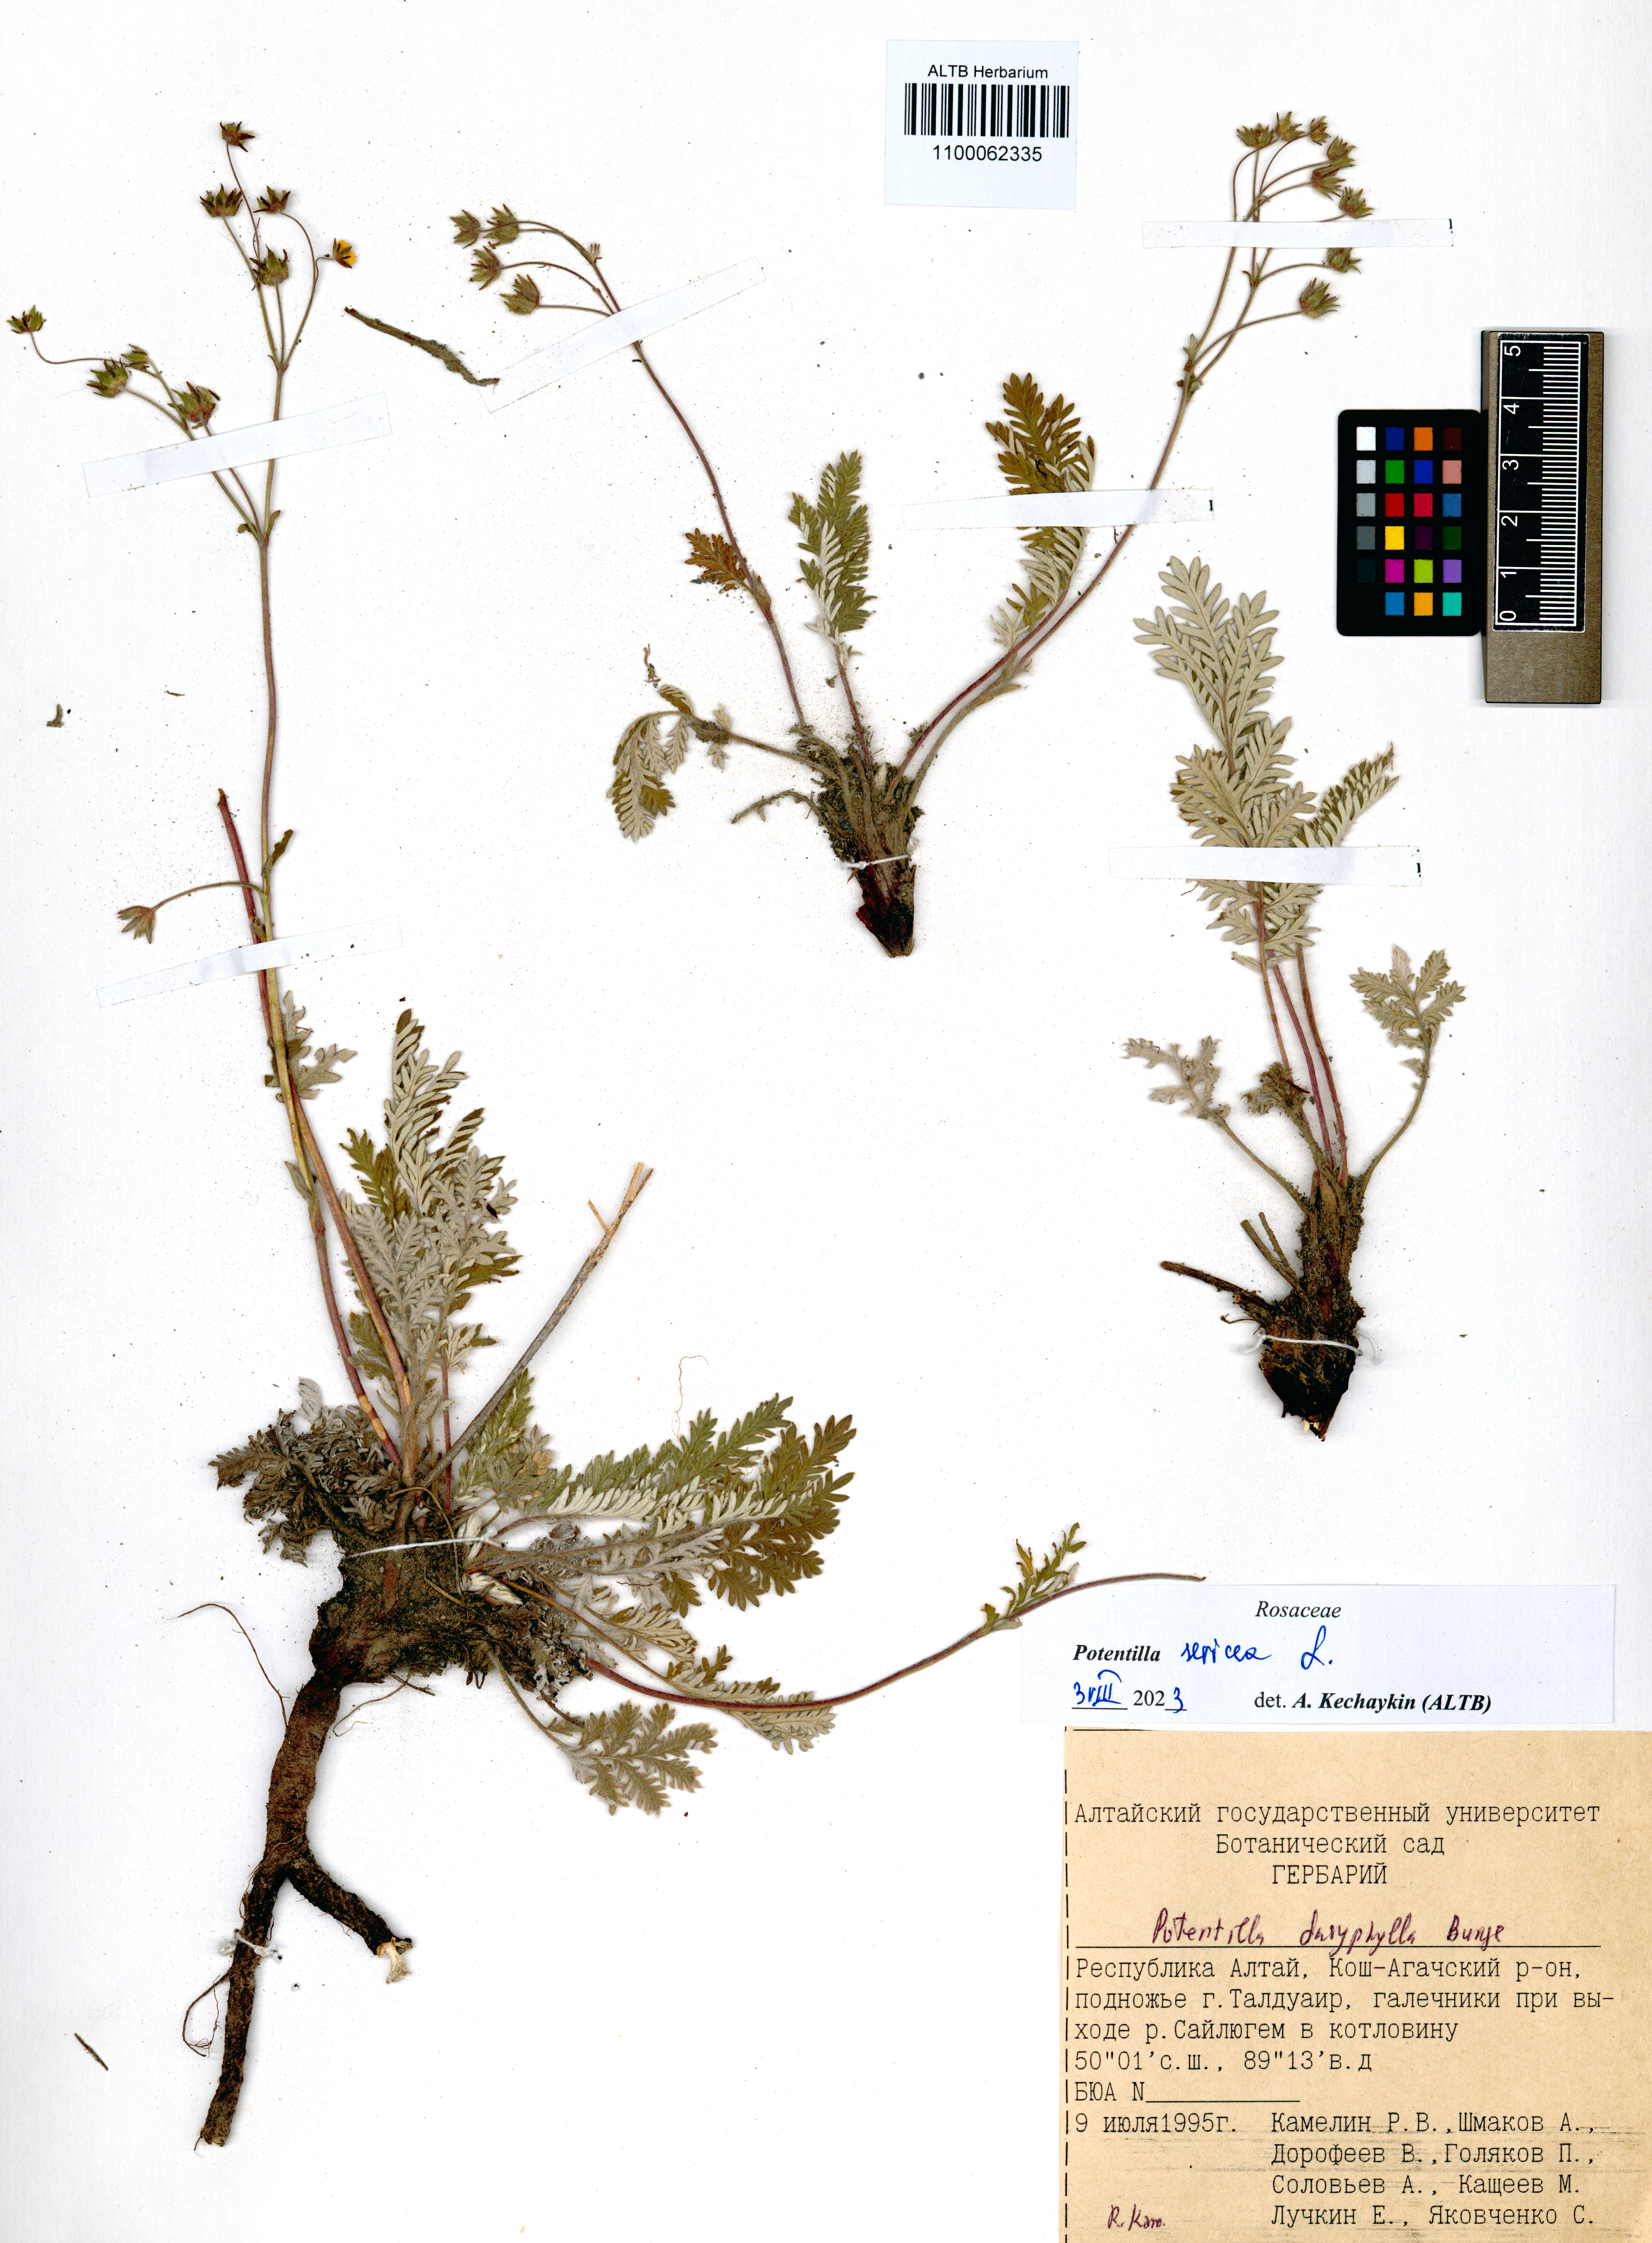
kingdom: Plantae
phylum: Tracheophyta
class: Magnoliopsida
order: Rosales
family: Rosaceae
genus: Potentilla
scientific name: Potentilla sericea
